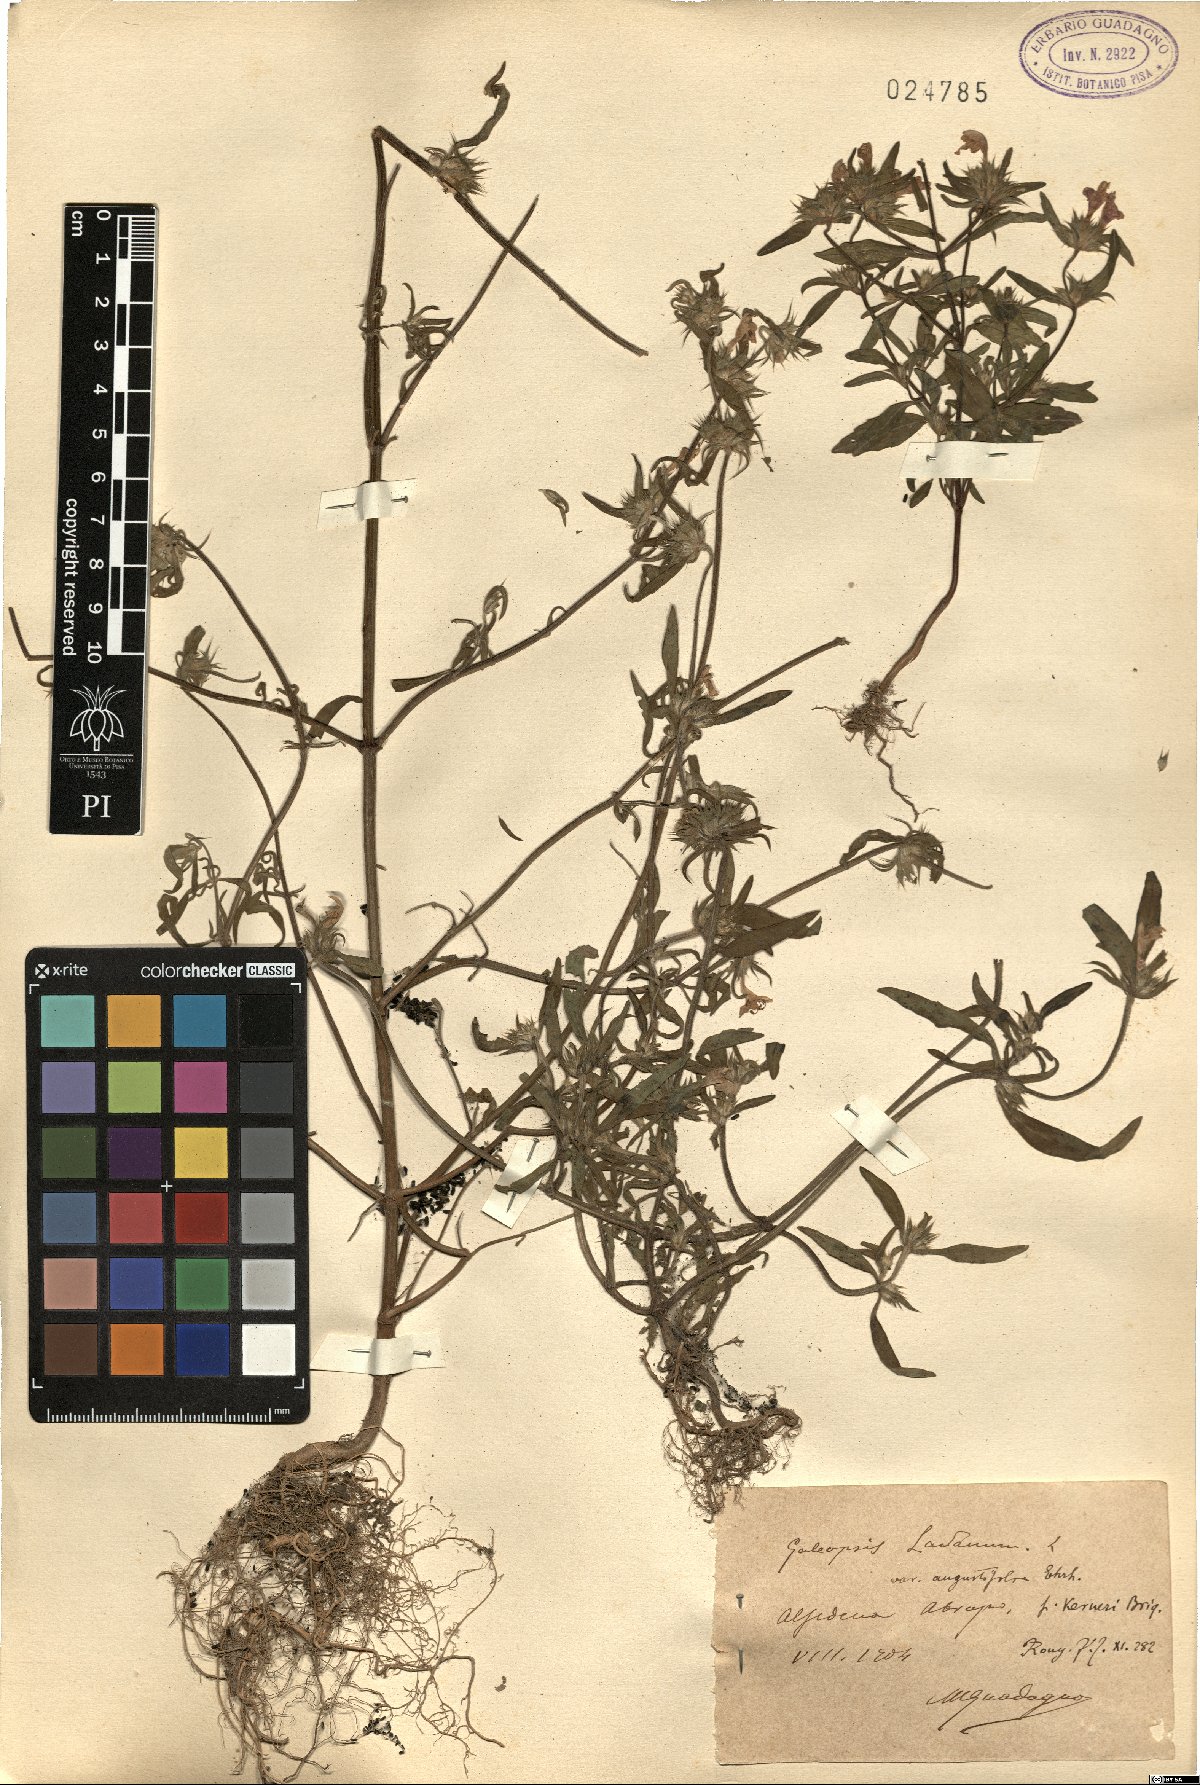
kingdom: Plantae
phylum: Tracheophyta
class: Magnoliopsida
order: Lamiales
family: Lamiaceae
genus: Galeopsis
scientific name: Galeopsis angustifolia
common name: Red hemp-nettle
